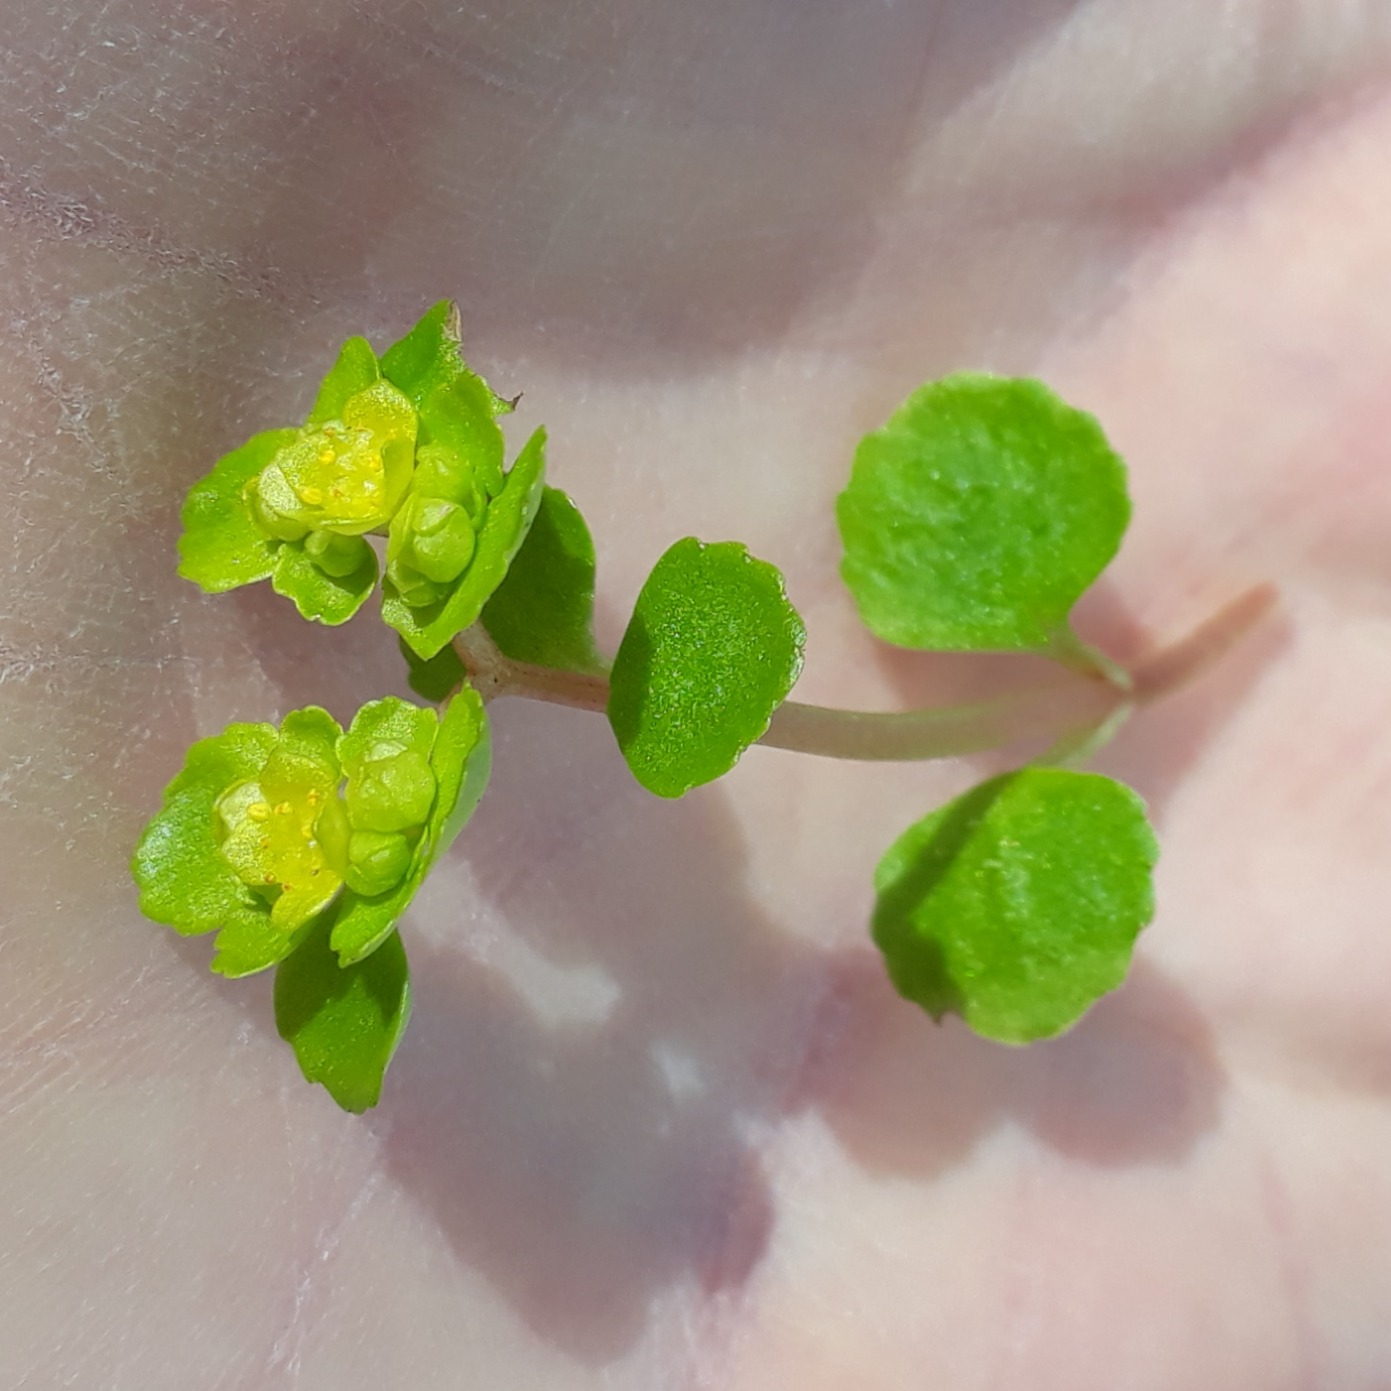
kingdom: Plantae
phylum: Tracheophyta
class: Magnoliopsida
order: Saxifragales
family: Saxifragaceae
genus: Chrysosplenium
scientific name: Chrysosplenium oppositifolium
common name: Småbladet milturt
